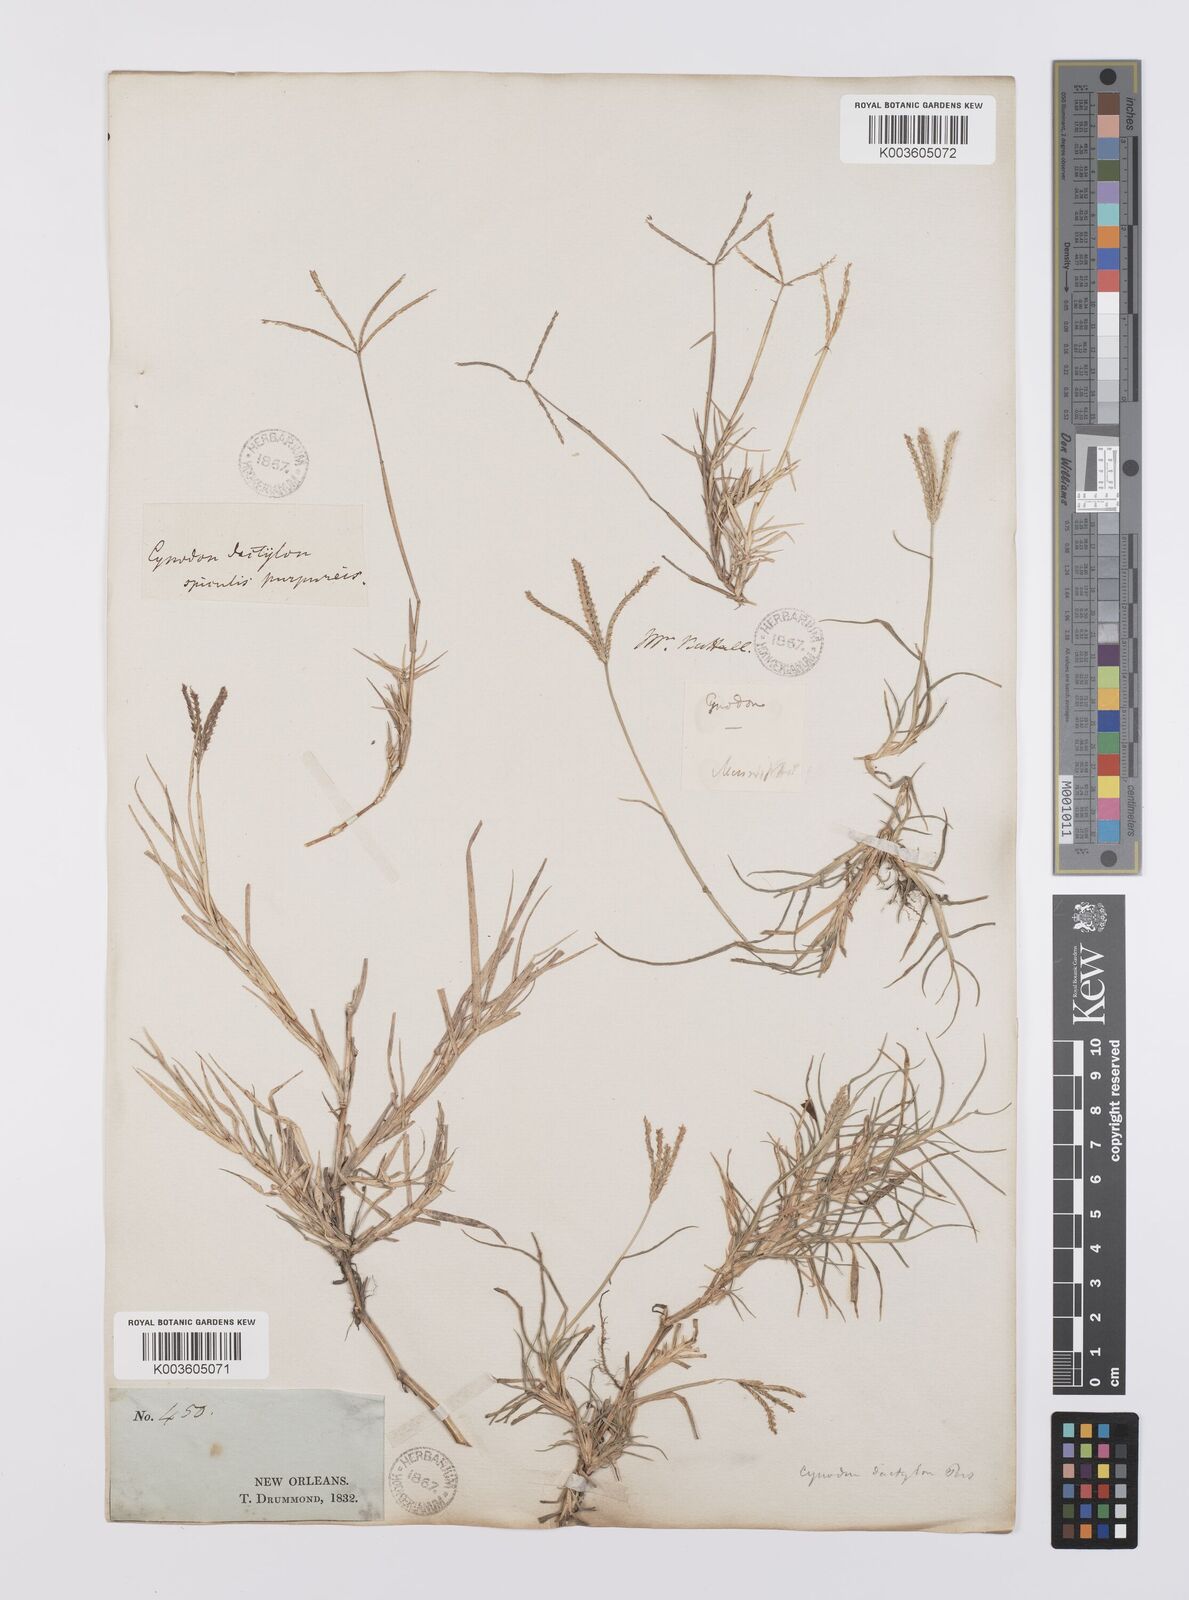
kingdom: Plantae
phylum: Tracheophyta
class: Liliopsida
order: Poales
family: Poaceae
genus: Cynodon
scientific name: Cynodon dactylon
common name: Bermuda grass
